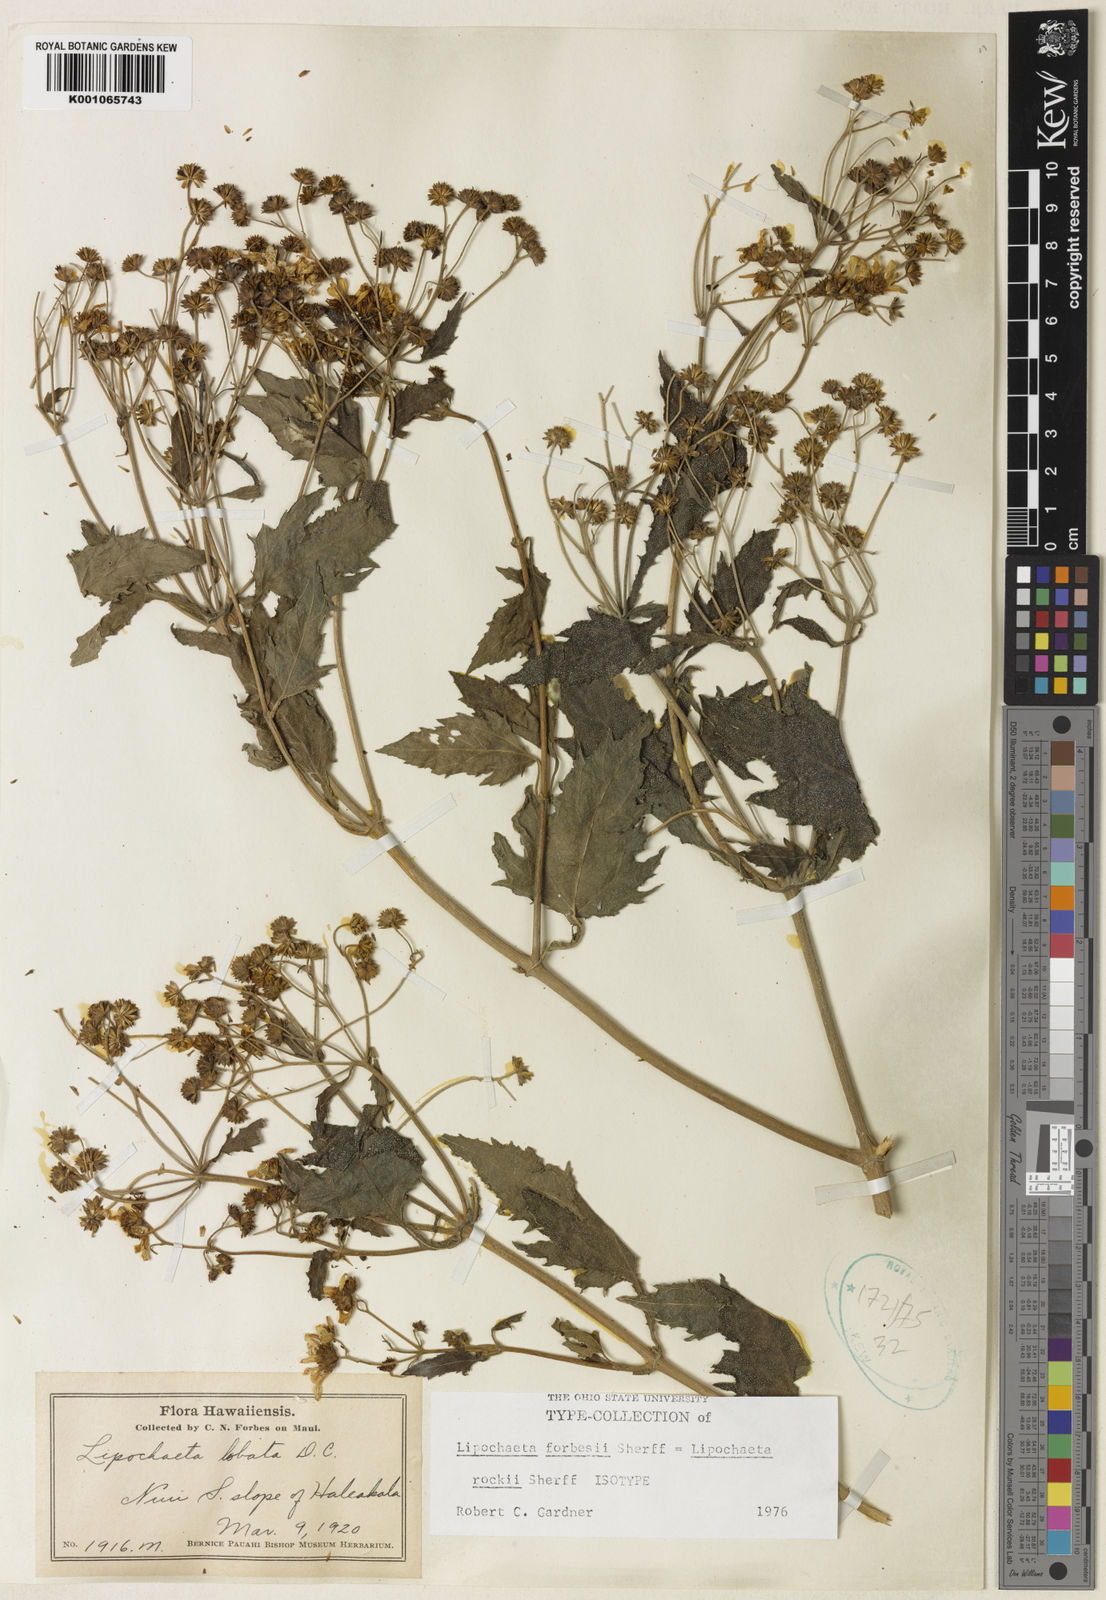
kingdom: Plantae
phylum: Tracheophyta
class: Magnoliopsida
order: Asterales
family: Asteraceae
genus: Lipochaeta
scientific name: Lipochaeta rockii
